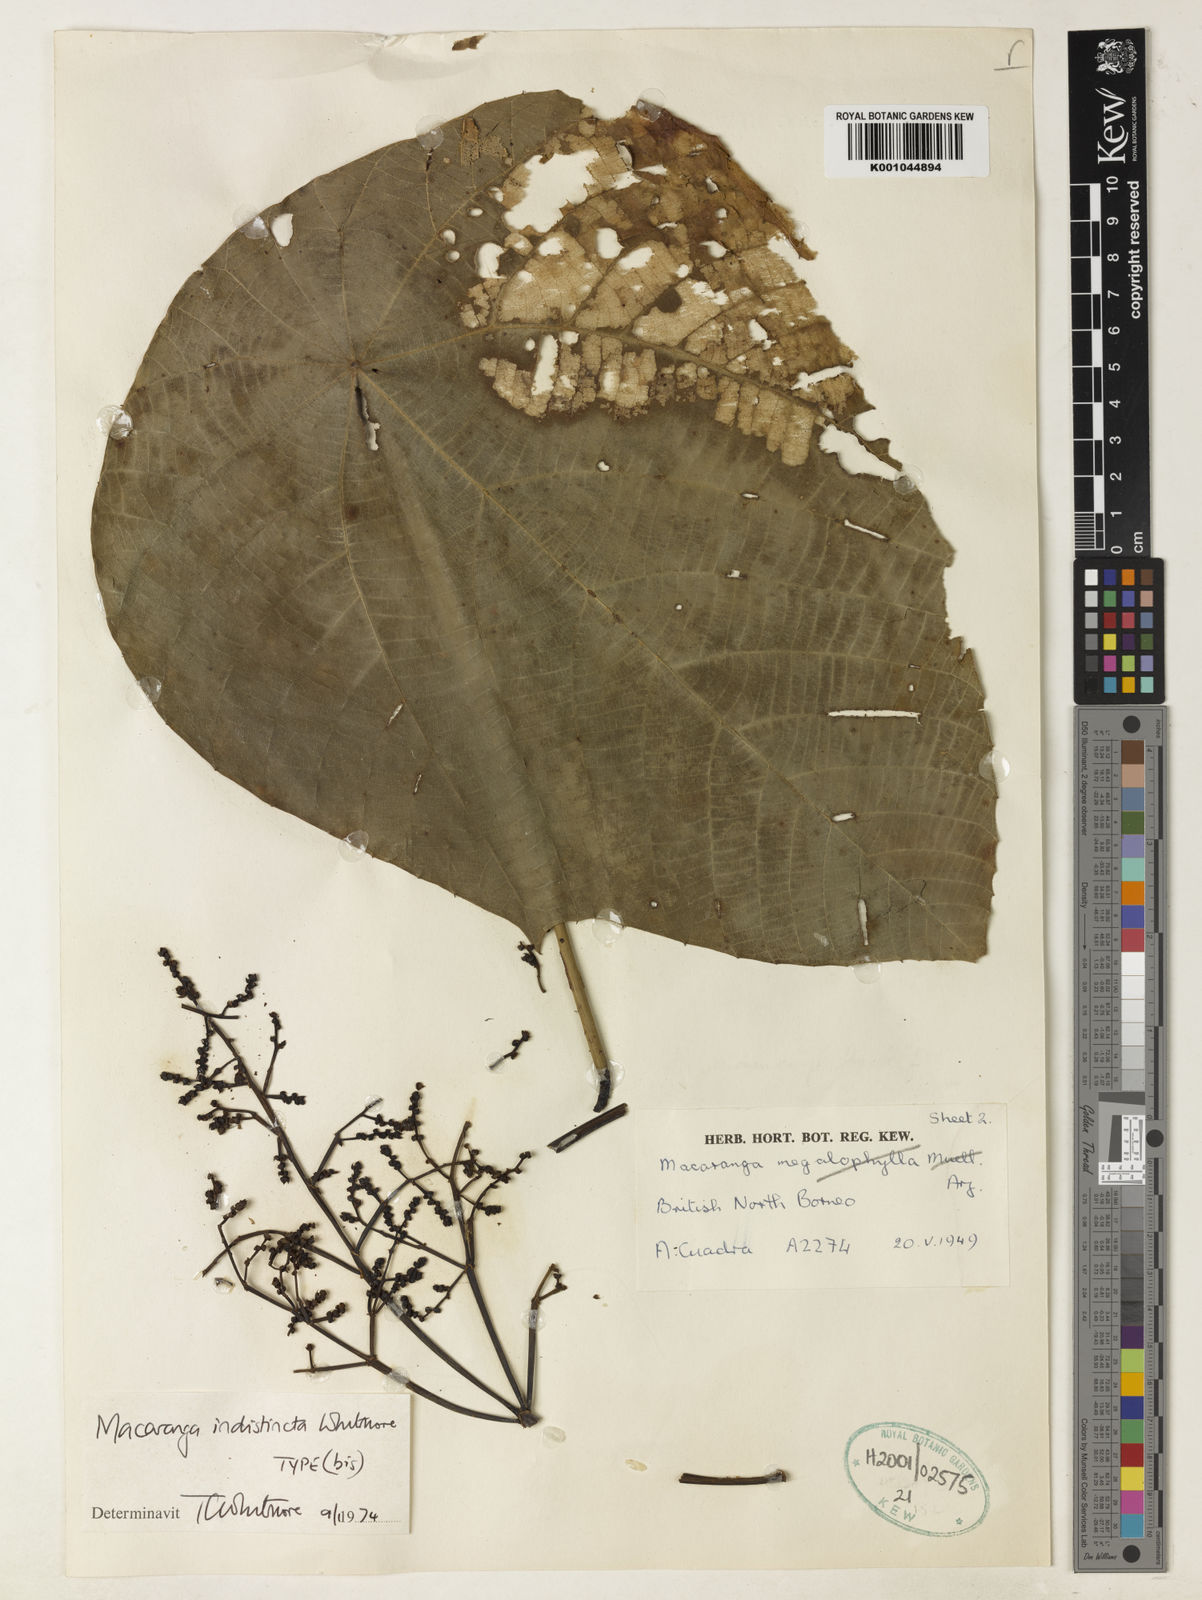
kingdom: Plantae
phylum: Tracheophyta
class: Magnoliopsida
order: Malpighiales
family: Euphorbiaceae
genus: Macaranga
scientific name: Macaranga indistincta
